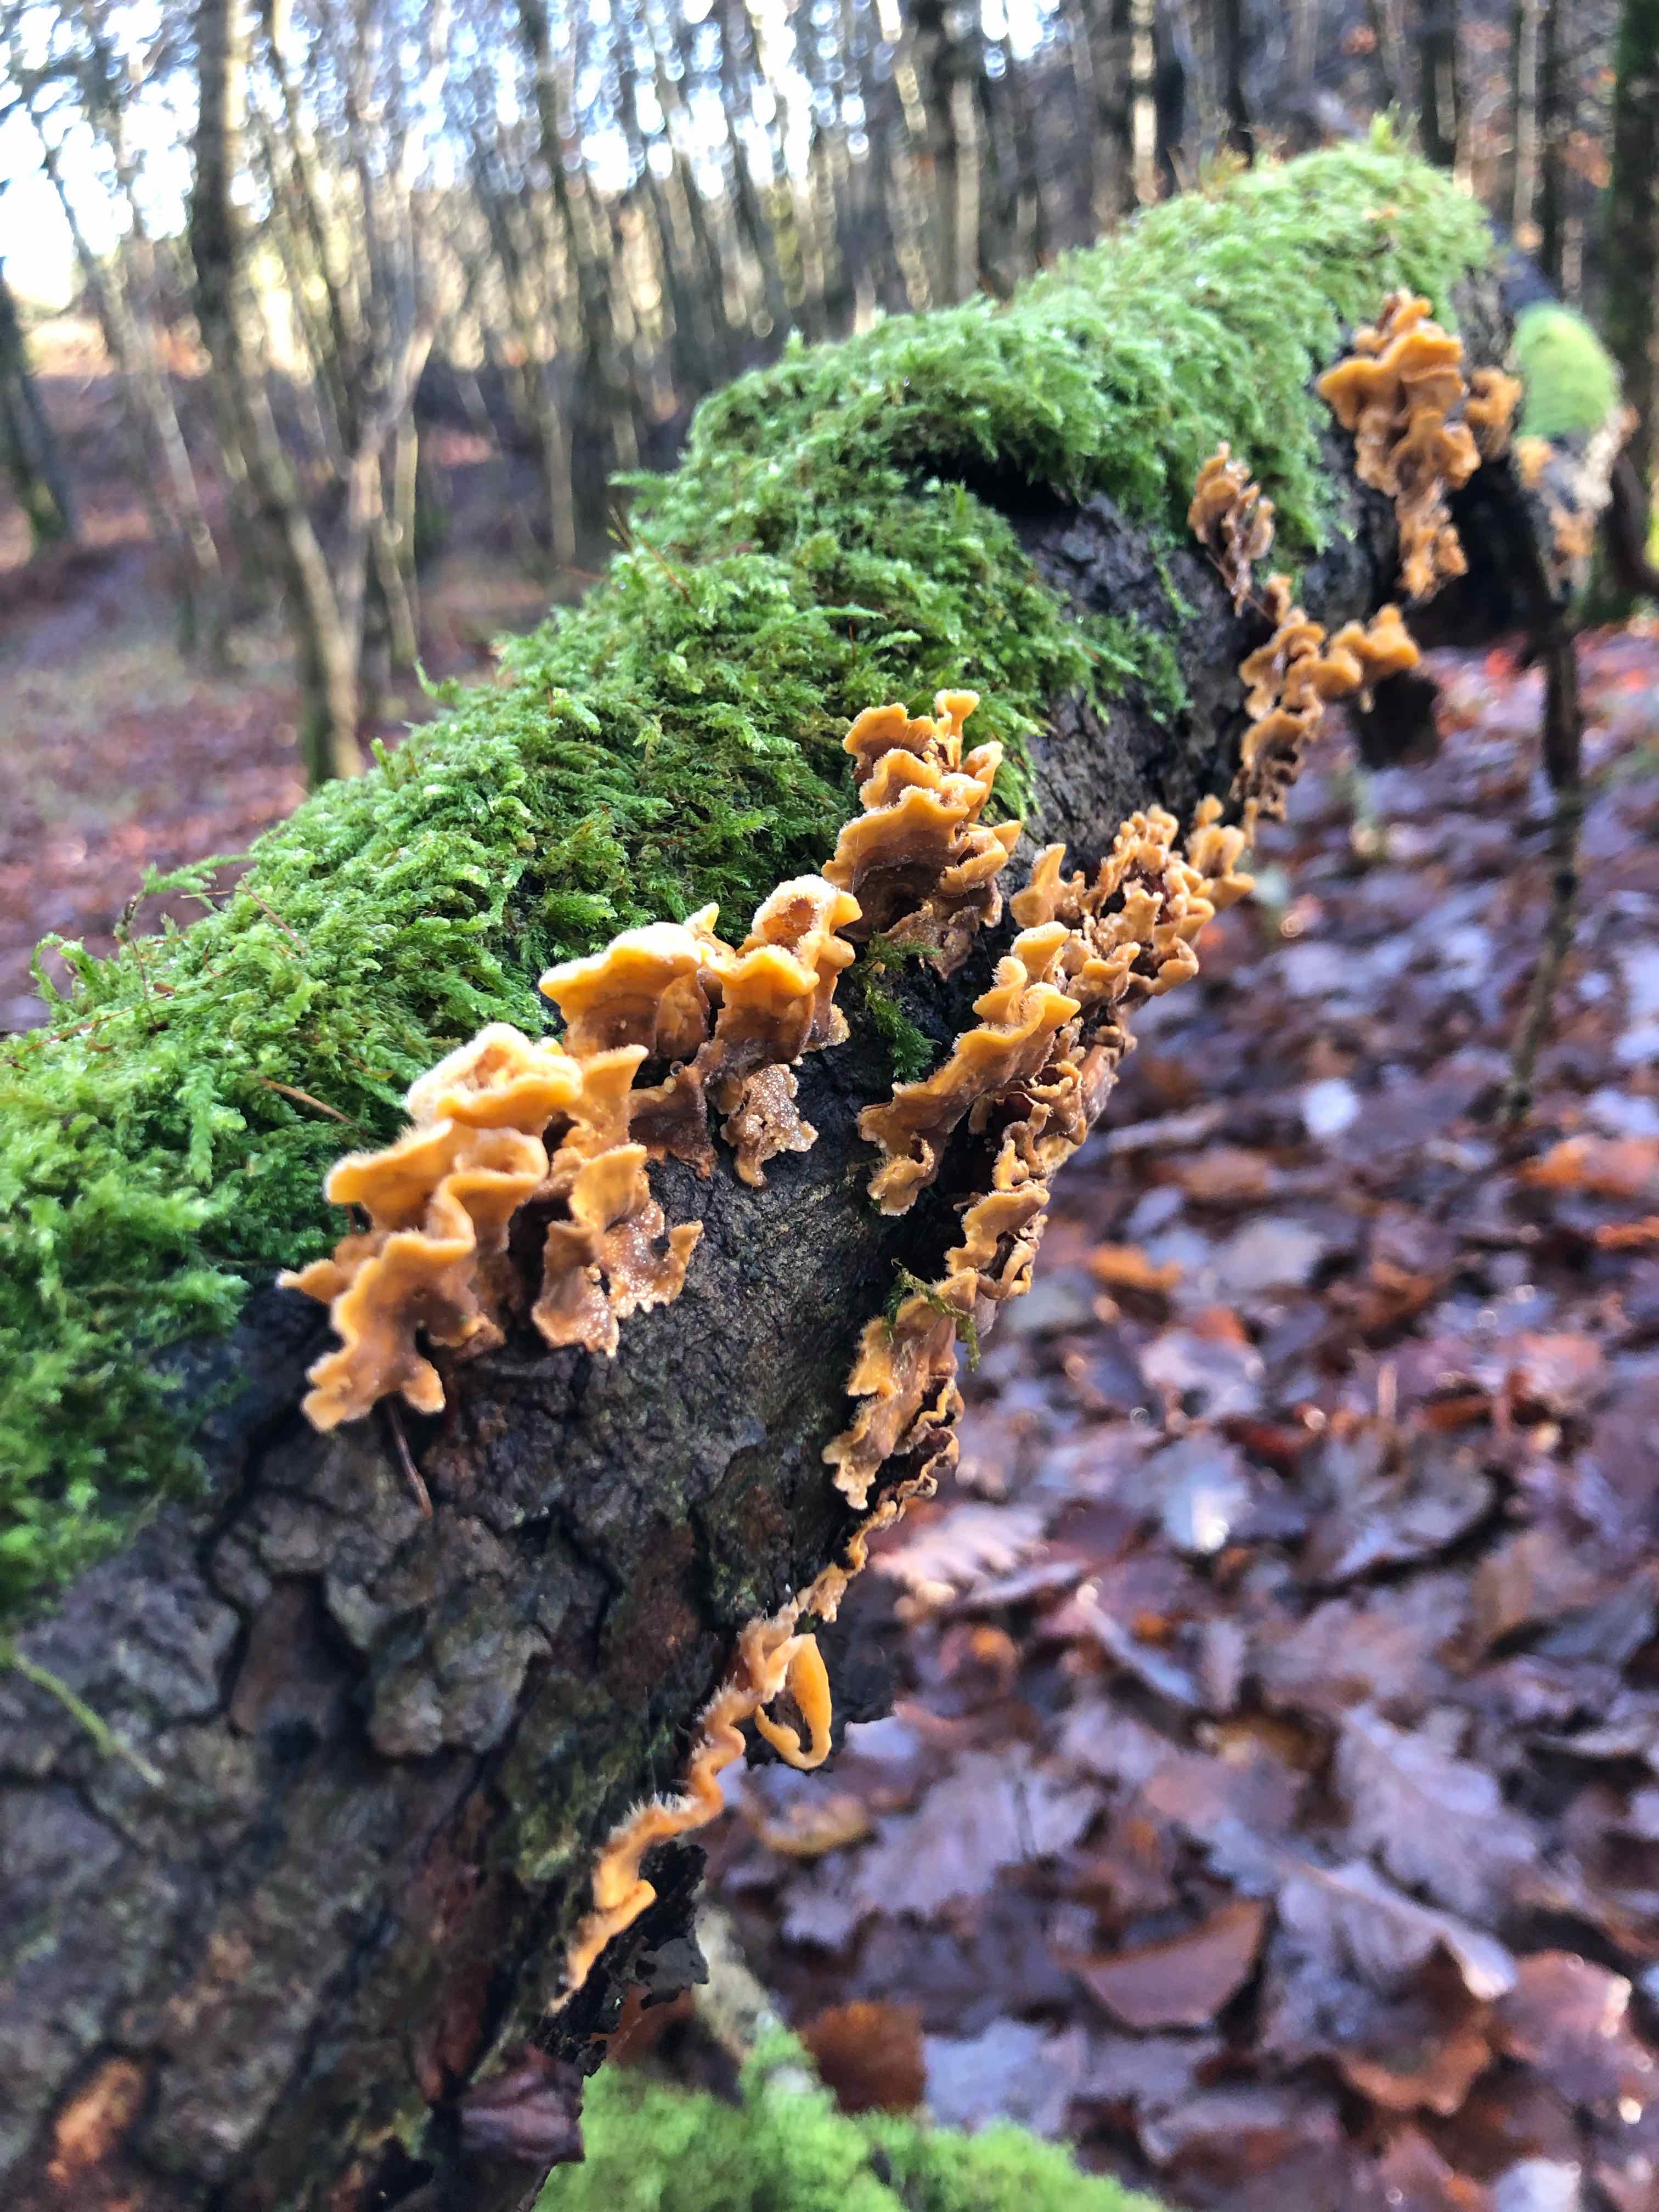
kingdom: Fungi
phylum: Basidiomycota
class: Agaricomycetes
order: Russulales
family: Stereaceae
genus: Stereum
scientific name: Stereum hirsutum
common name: håret lædersvamp
